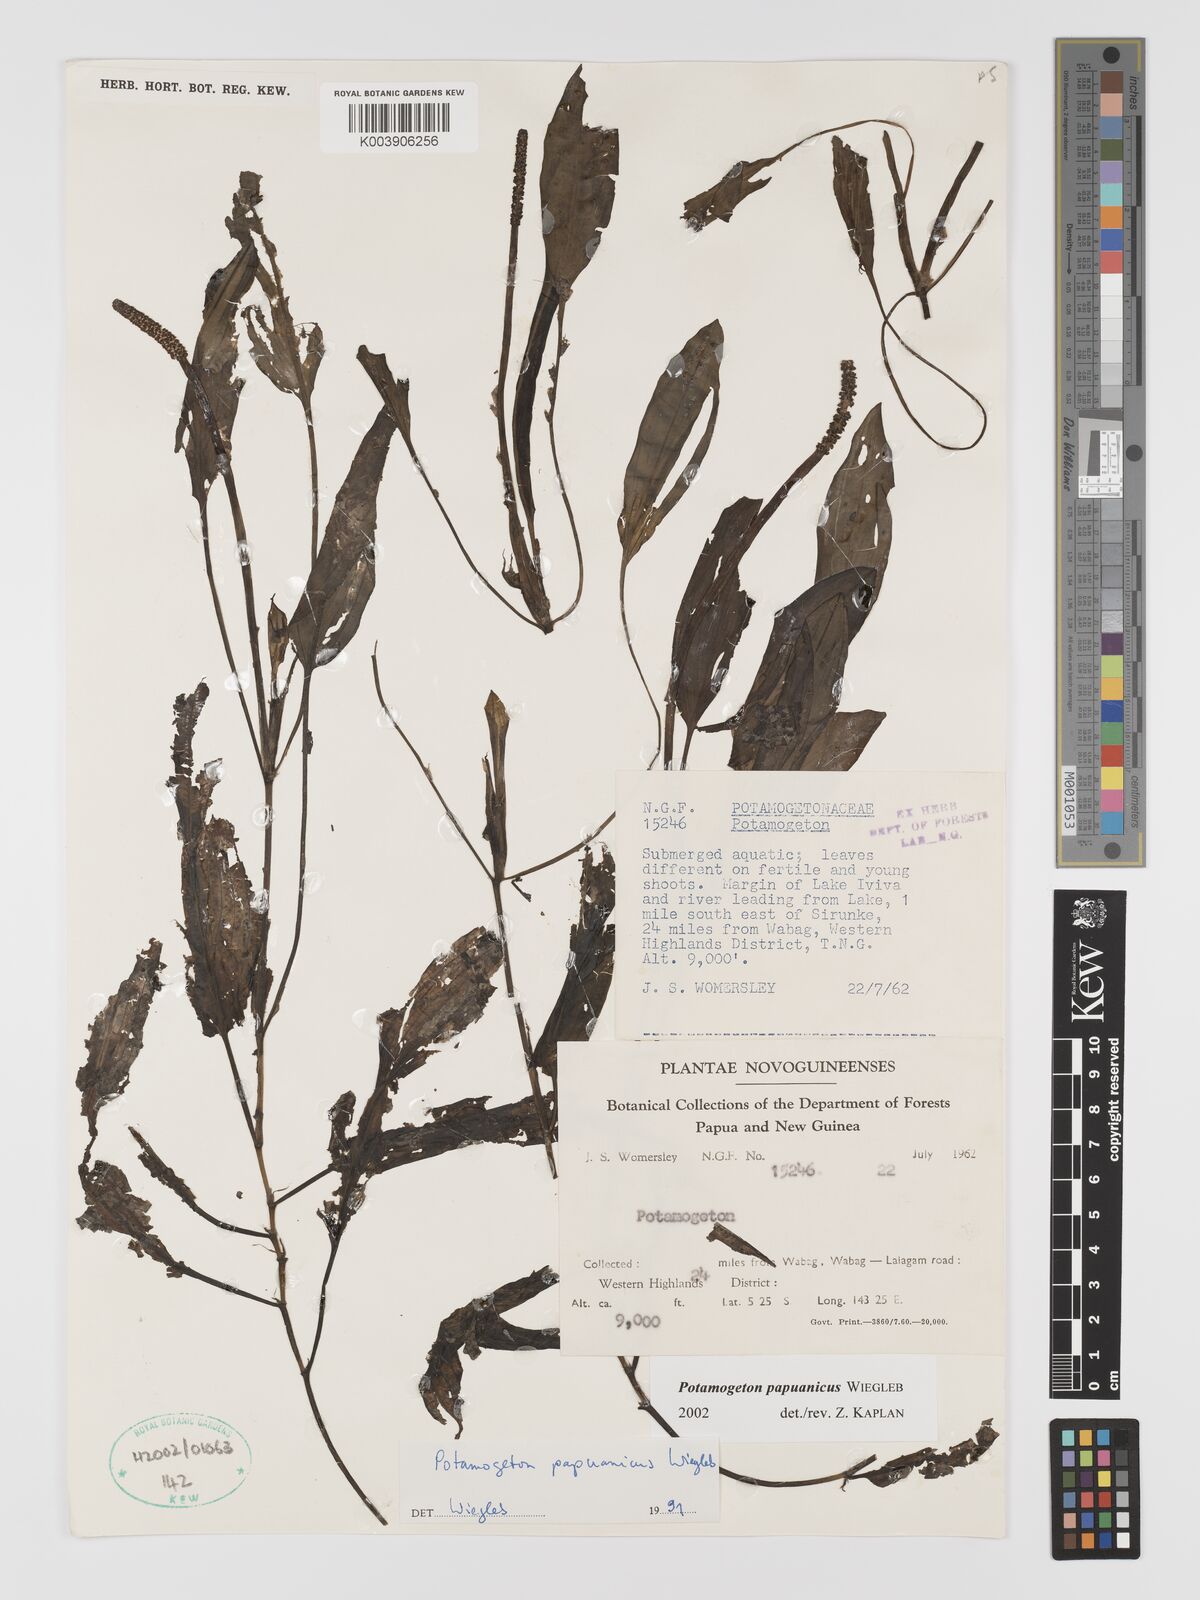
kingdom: Plantae
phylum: Tracheophyta
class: Liliopsida
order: Alismatales
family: Potamogetonaceae
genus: Potamogeton
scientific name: Potamogeton papuanicus
